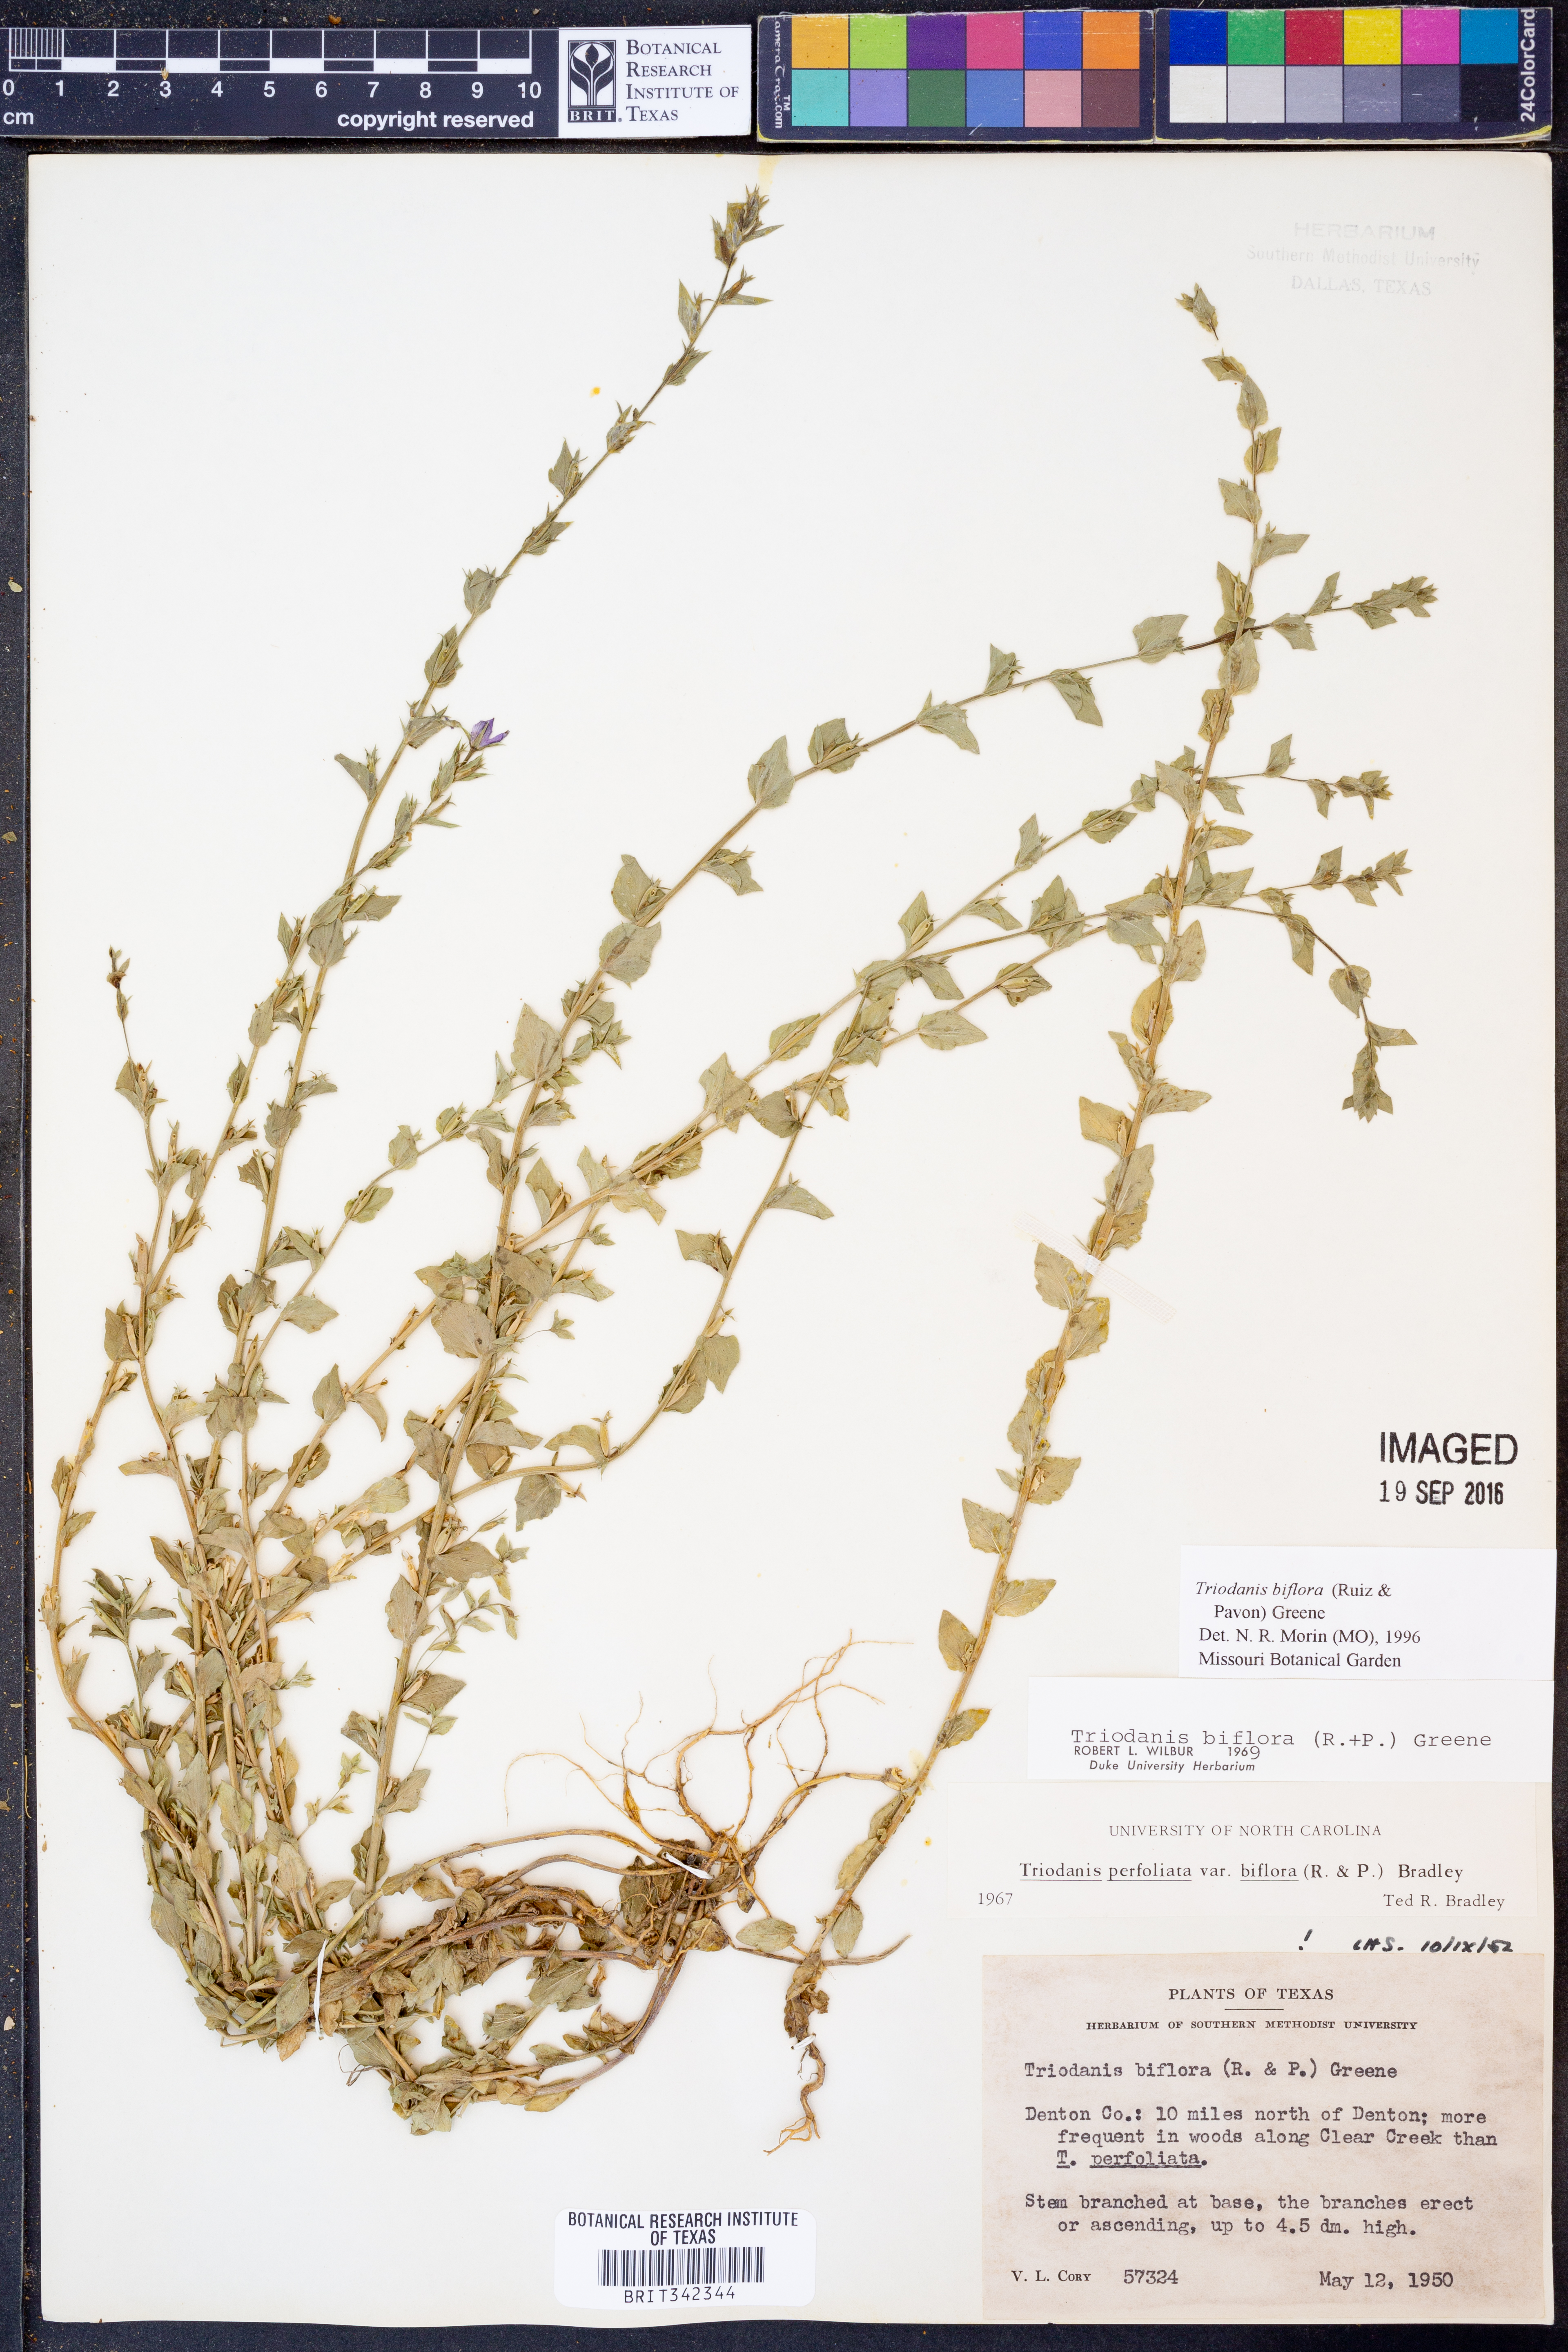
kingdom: Plantae
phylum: Tracheophyta
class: Magnoliopsida
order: Asterales
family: Campanulaceae
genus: Triodanis
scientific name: Triodanis perfoliata
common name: Clasping venus' looking-glass
